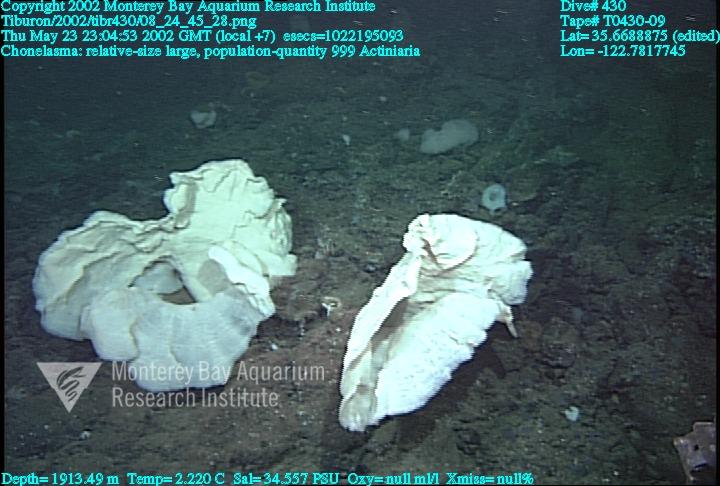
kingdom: Animalia
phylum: Porifera
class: Hexactinellida
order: Sceptrulophora
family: Euretidae
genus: Chonelasma
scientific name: Chonelasma
